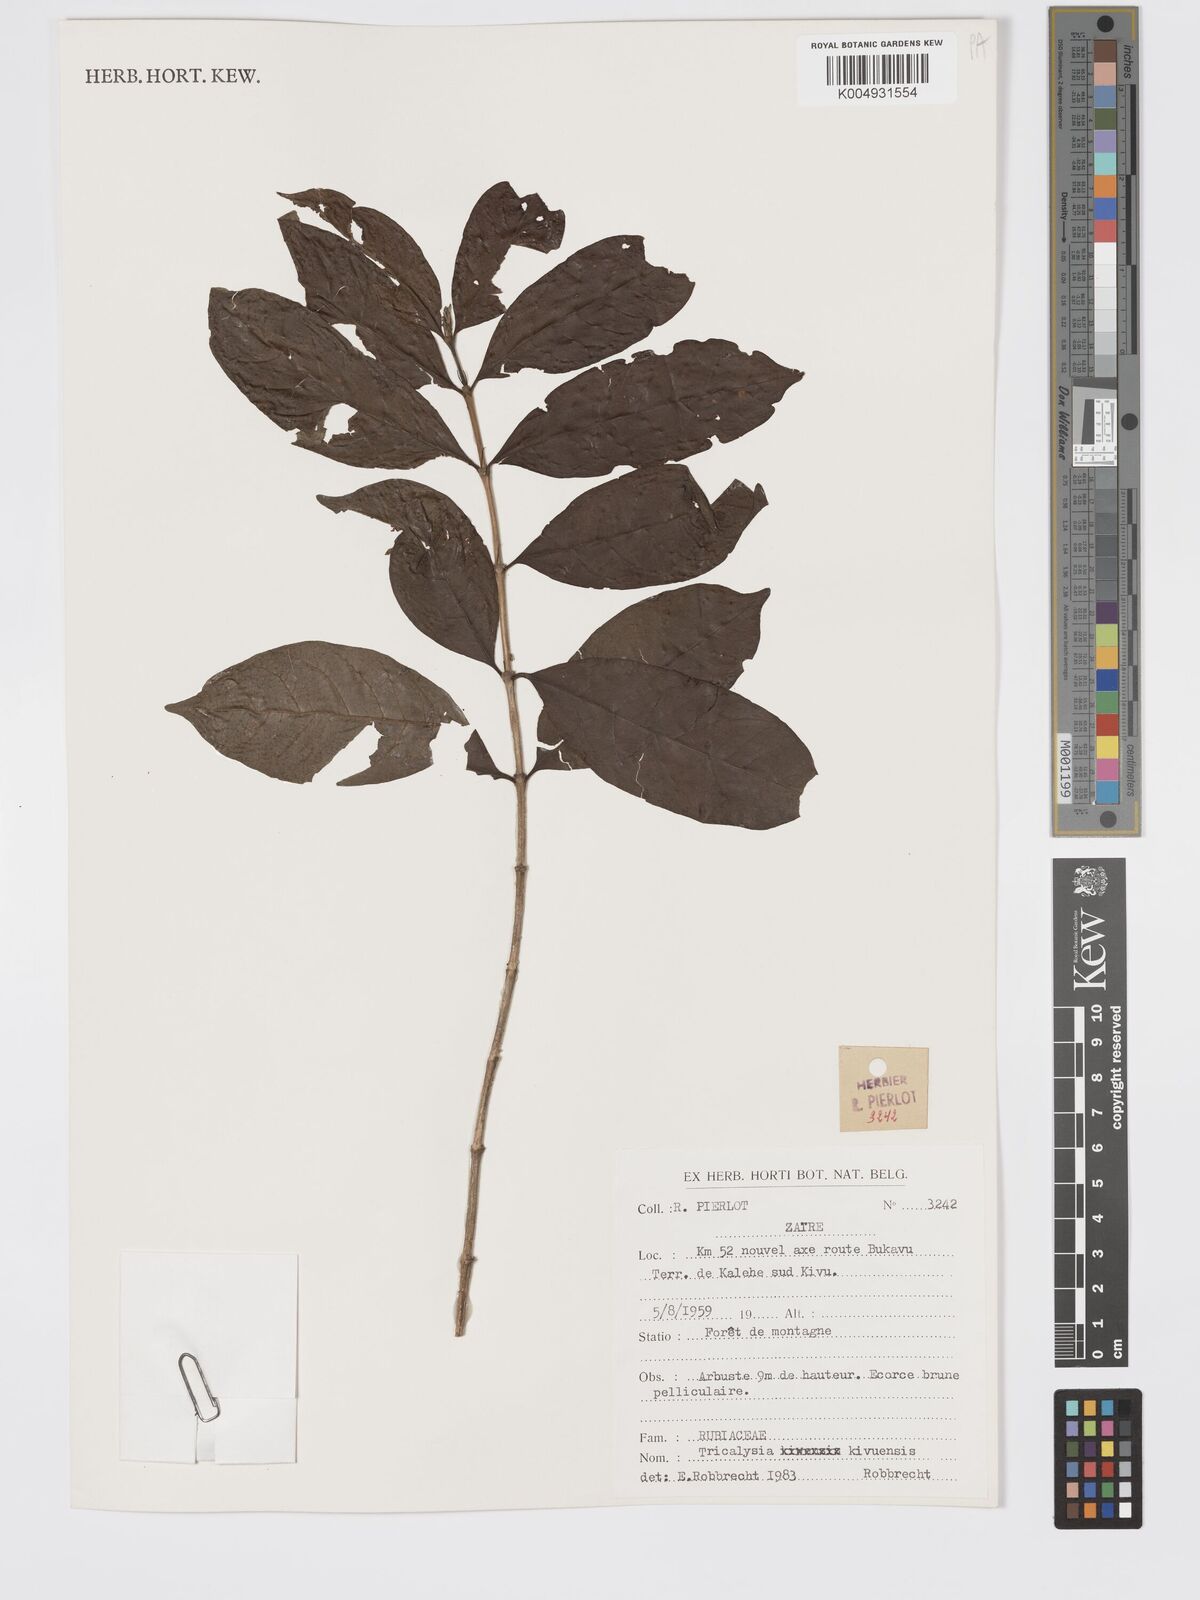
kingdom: Plantae
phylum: Tracheophyta
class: Magnoliopsida
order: Gentianales
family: Rubiaceae
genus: Tricalysia
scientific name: Tricalysia kivuensis
